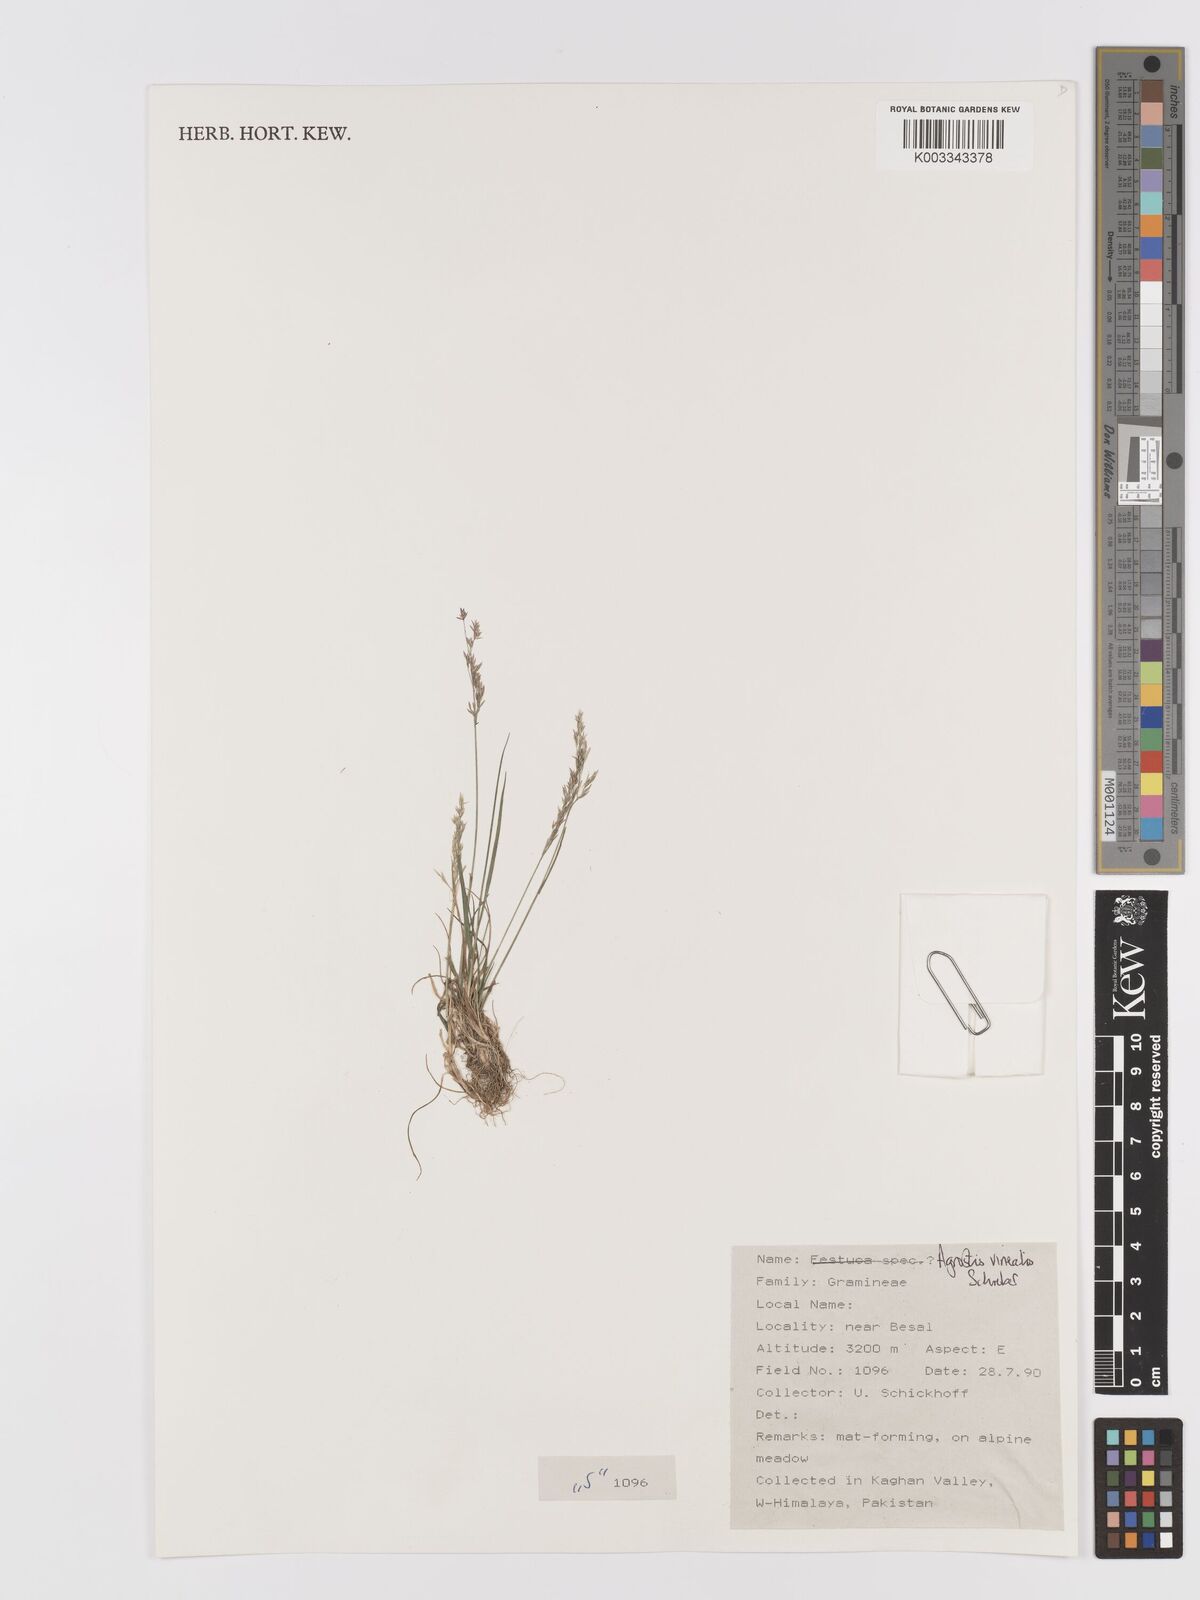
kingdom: Plantae
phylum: Tracheophyta
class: Liliopsida
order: Poales
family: Poaceae
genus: Agrostis
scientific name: Agrostis vinealis
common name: Brown bent
